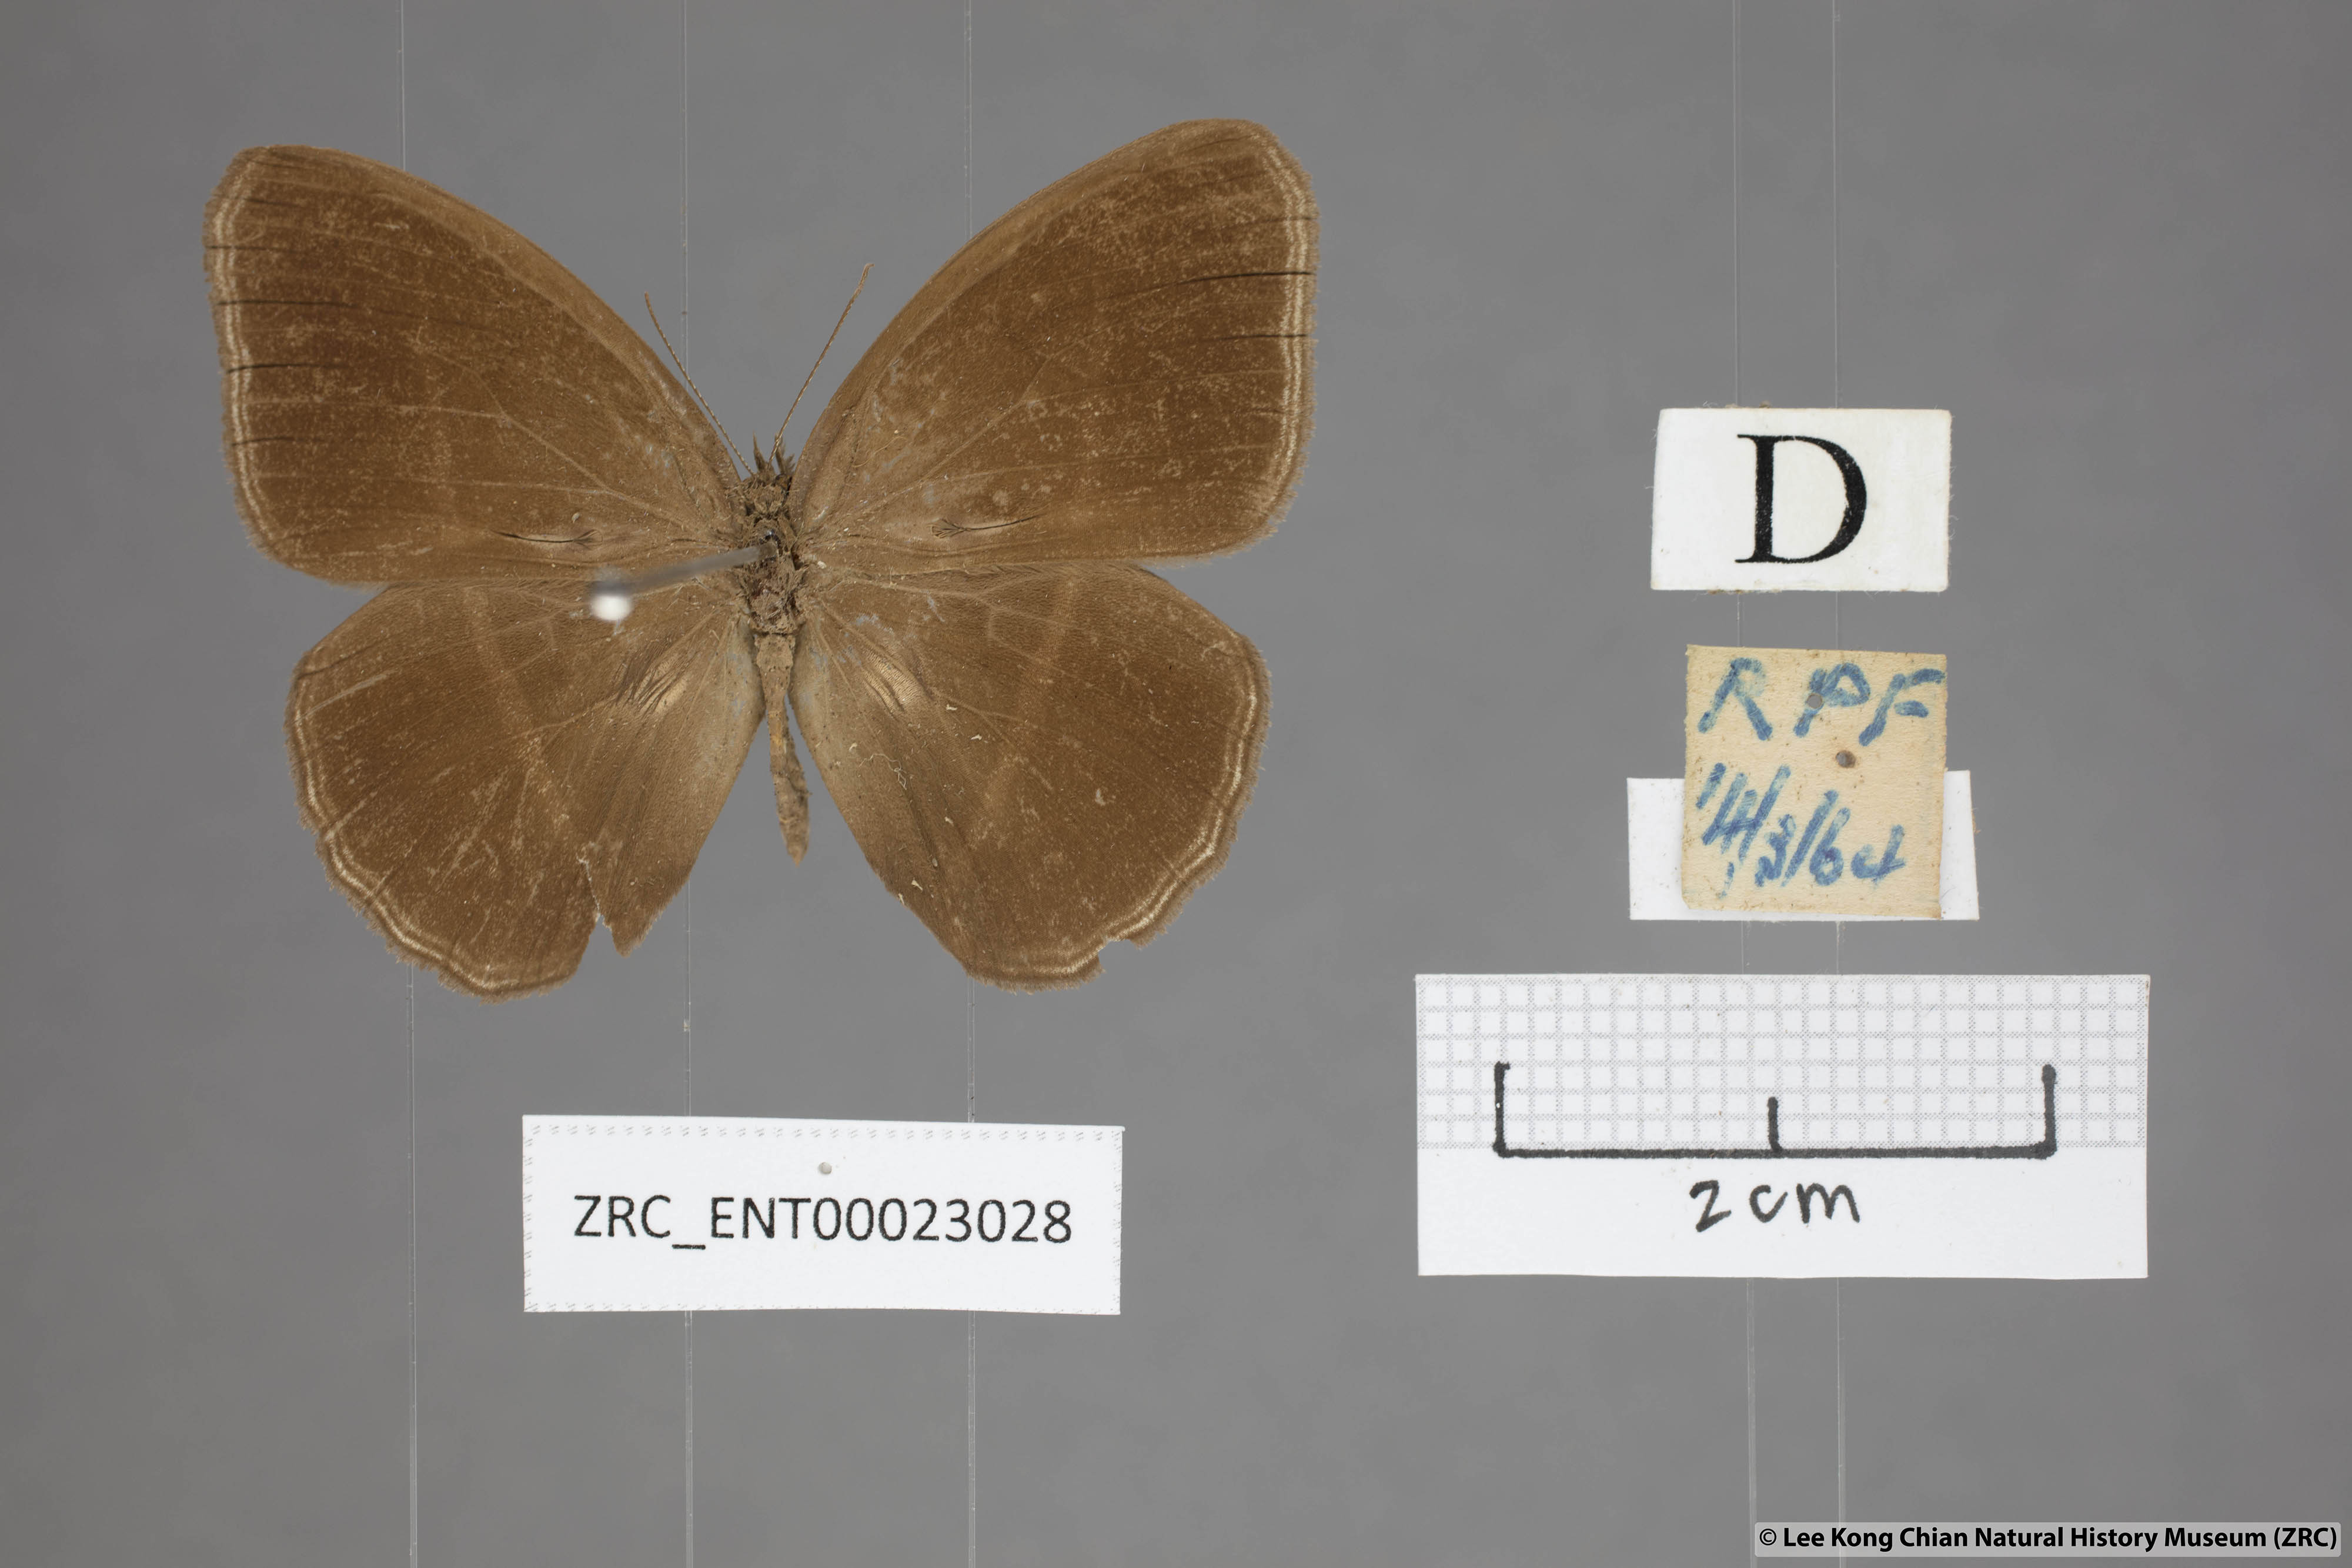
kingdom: Animalia
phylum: Arthropoda
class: Insecta
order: Lepidoptera
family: Nymphalidae
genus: Orsotriaena
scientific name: Orsotriaena medus
